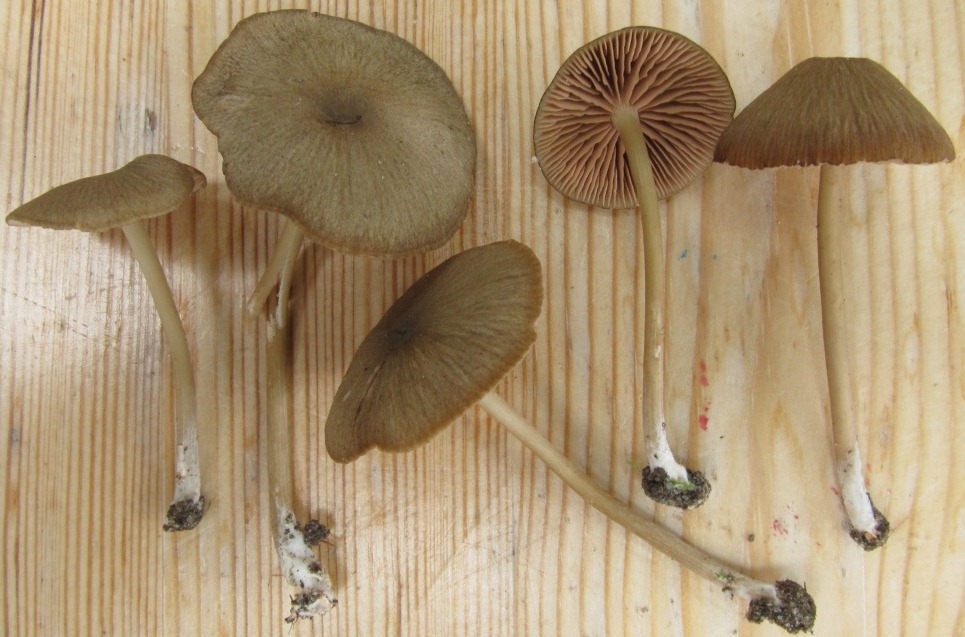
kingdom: Fungi
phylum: Basidiomycota
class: Agaricomycetes
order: Agaricales
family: Entolomataceae
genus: Entoloma
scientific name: Entoloma turci
